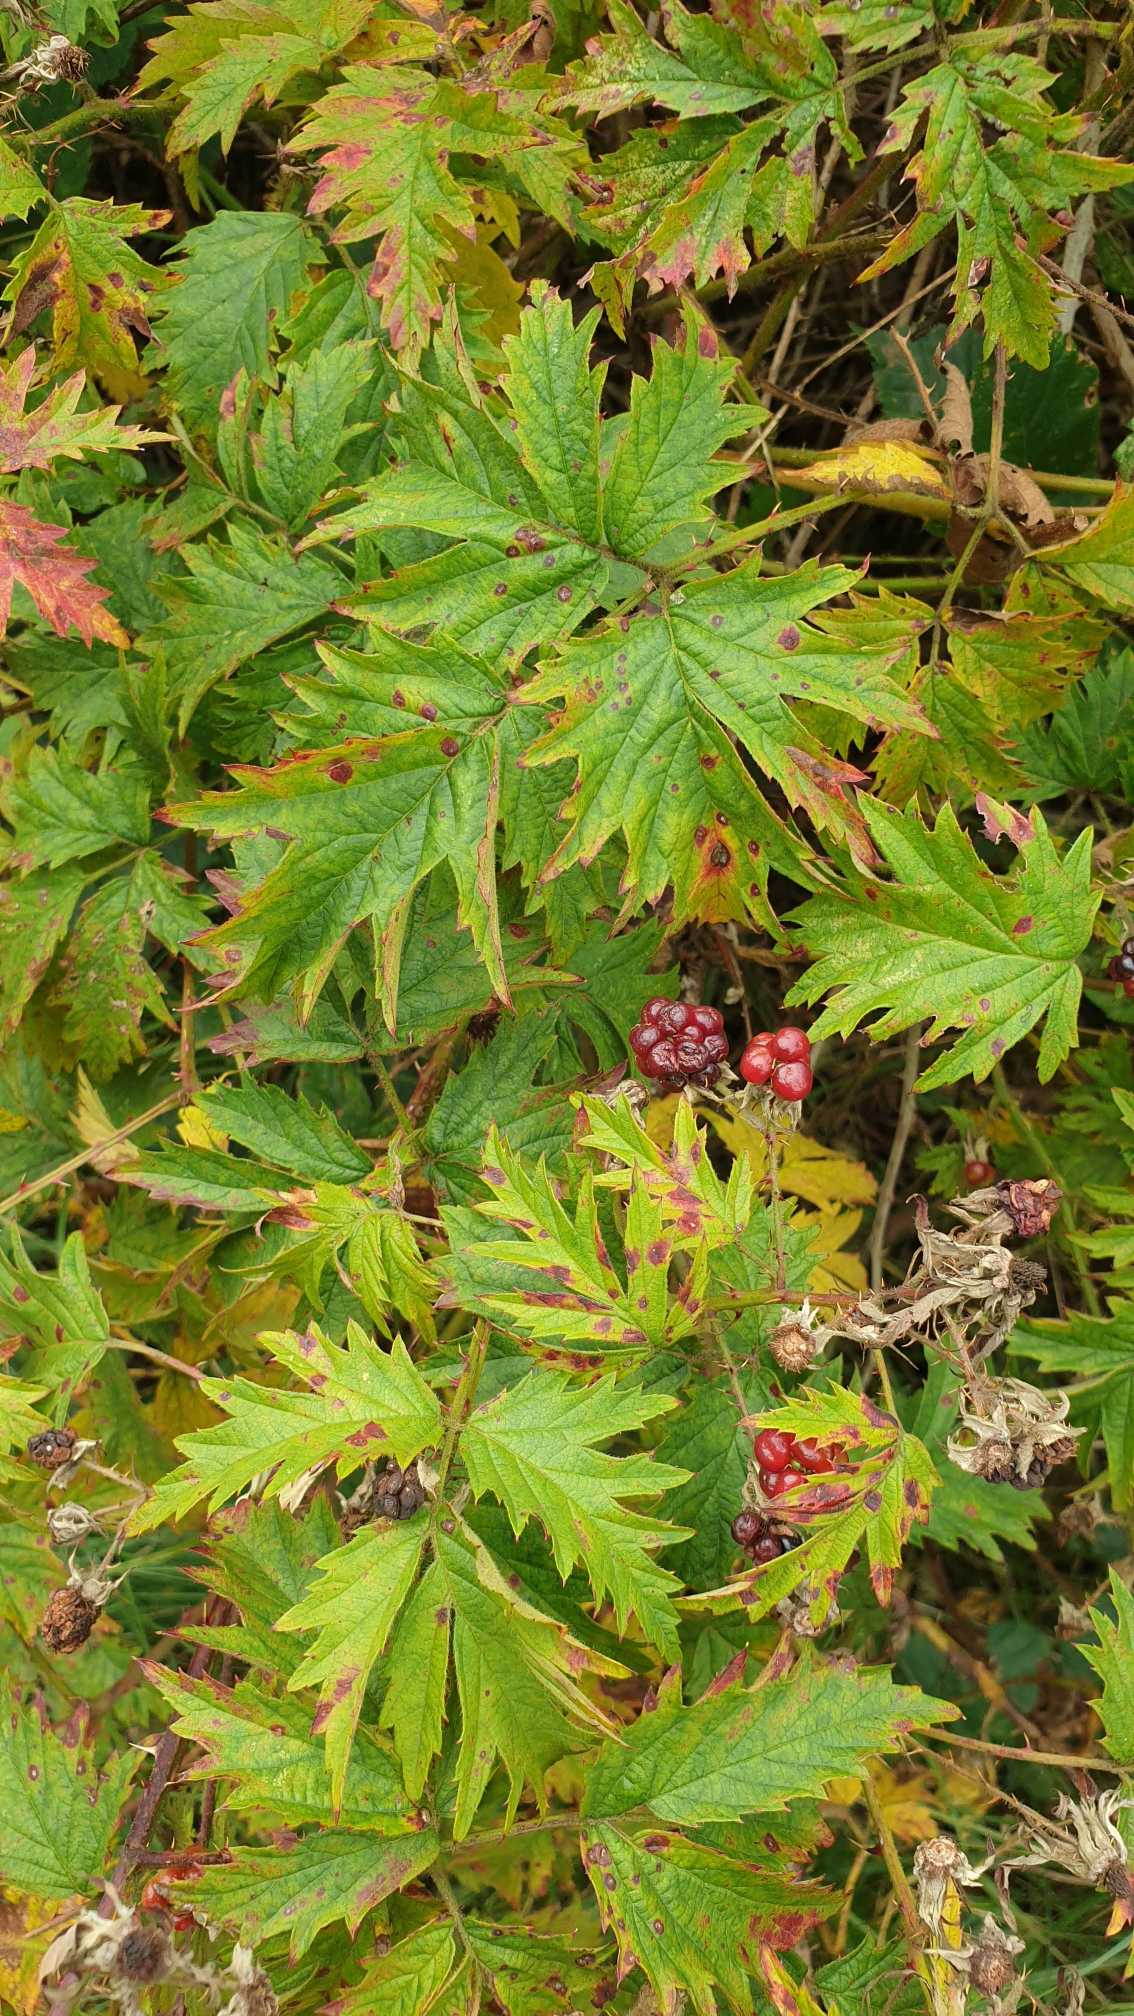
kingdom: Plantae
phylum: Tracheophyta
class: Magnoliopsida
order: Rosales
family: Rosaceae
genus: Rubus
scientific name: Rubus laciniatus
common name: Fliget brombær
